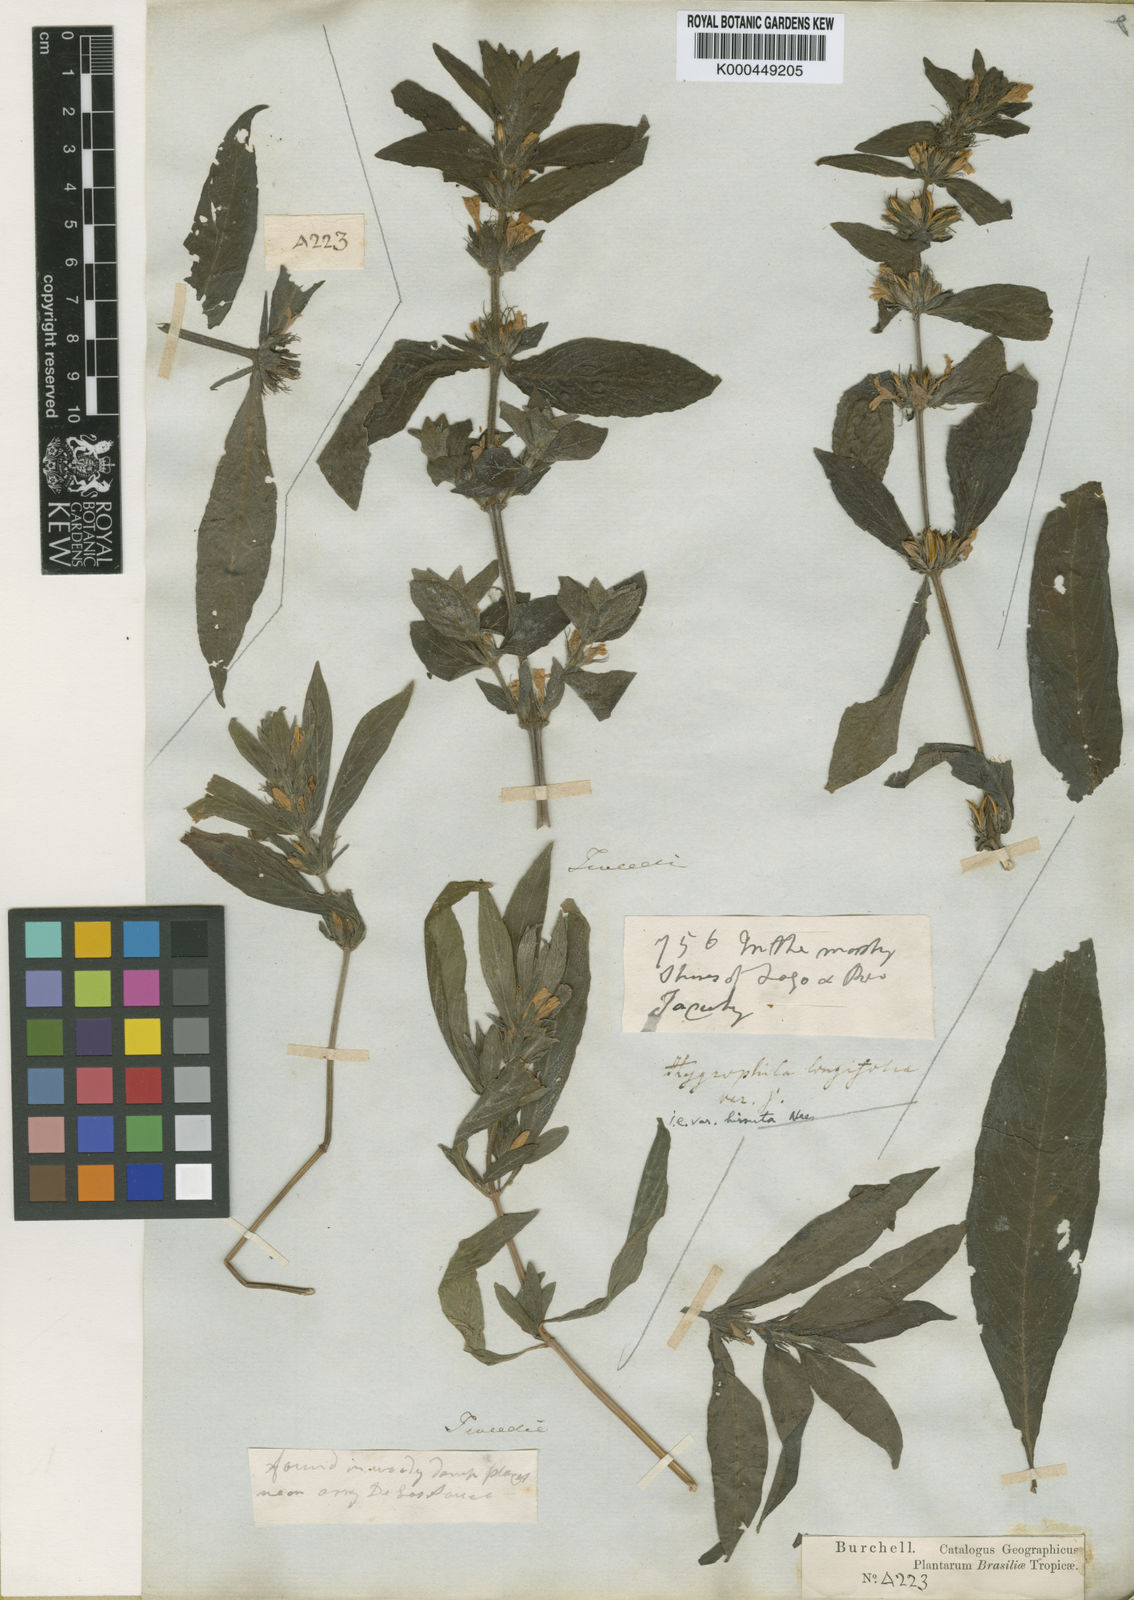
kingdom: Plantae
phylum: Tracheophyta
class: Magnoliopsida
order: Lamiales
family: Acanthaceae
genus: Dyschoriste
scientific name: Dyschoriste trichanthera
